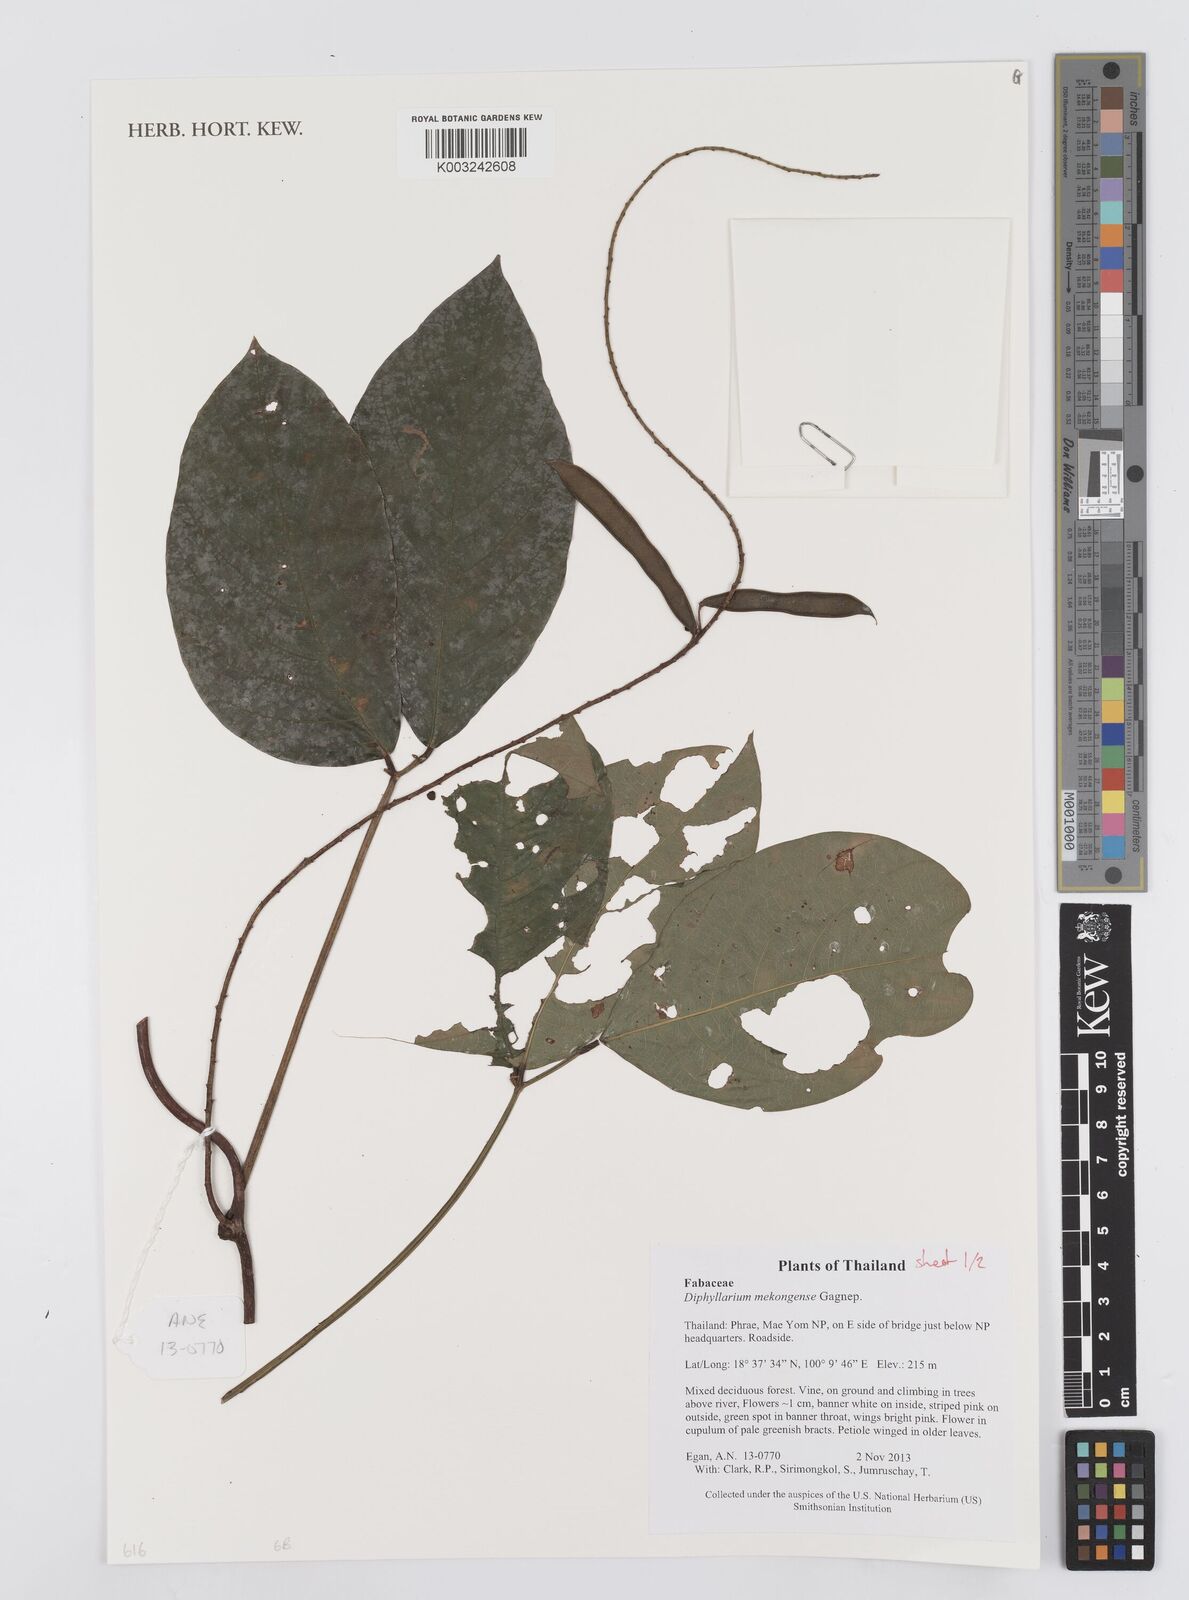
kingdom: Plantae
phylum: Tracheophyta
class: Magnoliopsida
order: Fabales
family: Fabaceae
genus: Diphyllarium
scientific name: Diphyllarium mekongense
